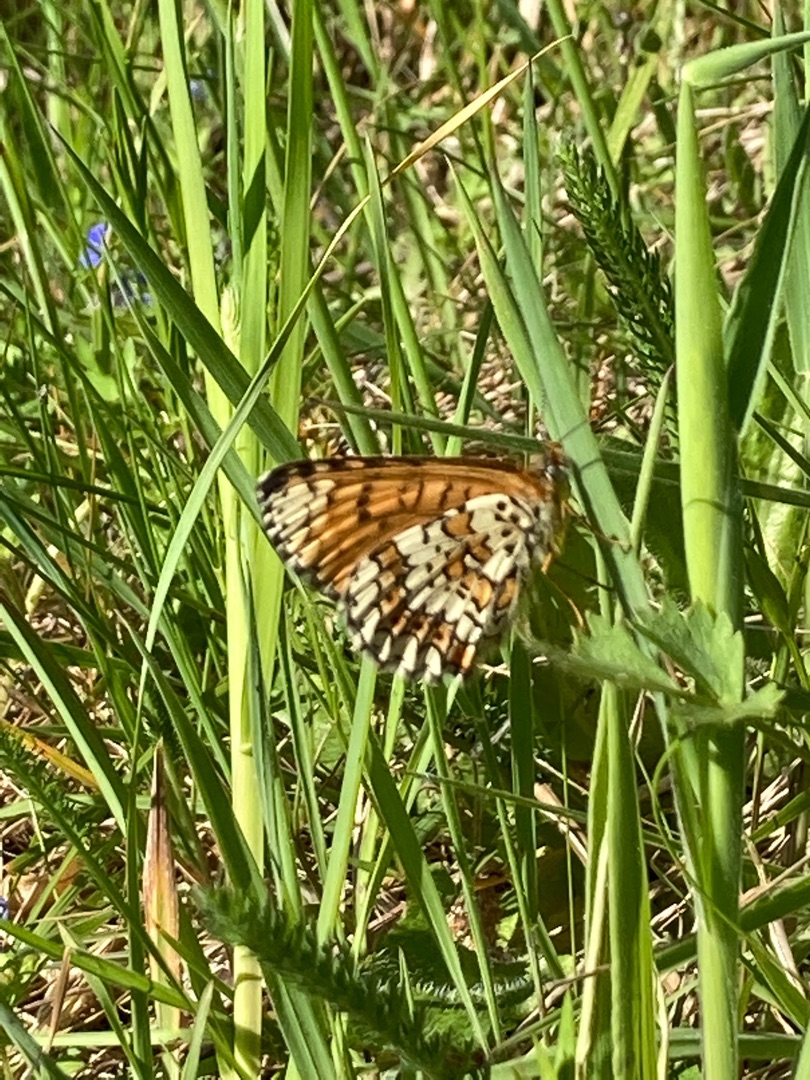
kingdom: Animalia
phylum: Arthropoda
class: Insecta
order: Lepidoptera
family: Nymphalidae
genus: Melitaea
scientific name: Melitaea cinxia
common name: Okkergul pletvinge
